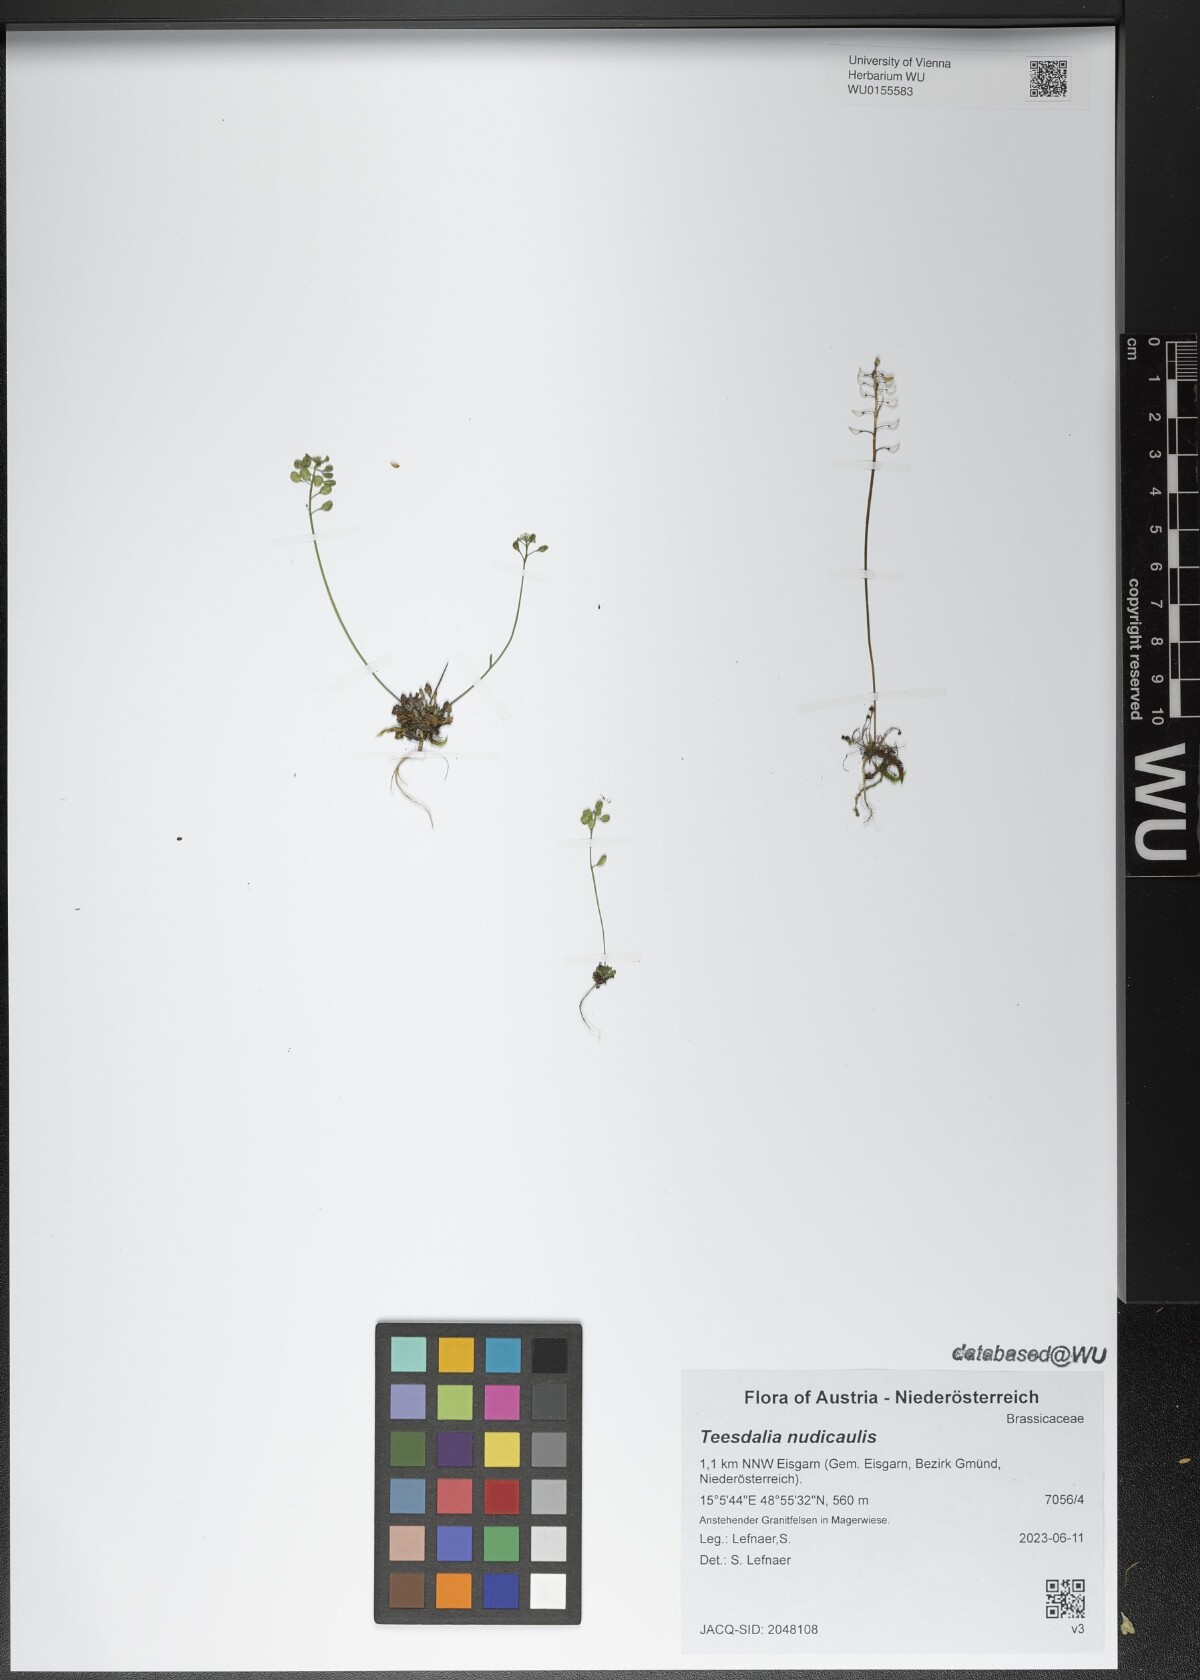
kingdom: Plantae
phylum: Tracheophyta
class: Magnoliopsida
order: Brassicales
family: Brassicaceae
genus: Teesdalia
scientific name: Teesdalia nudicaulis
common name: Shepherd's cress
